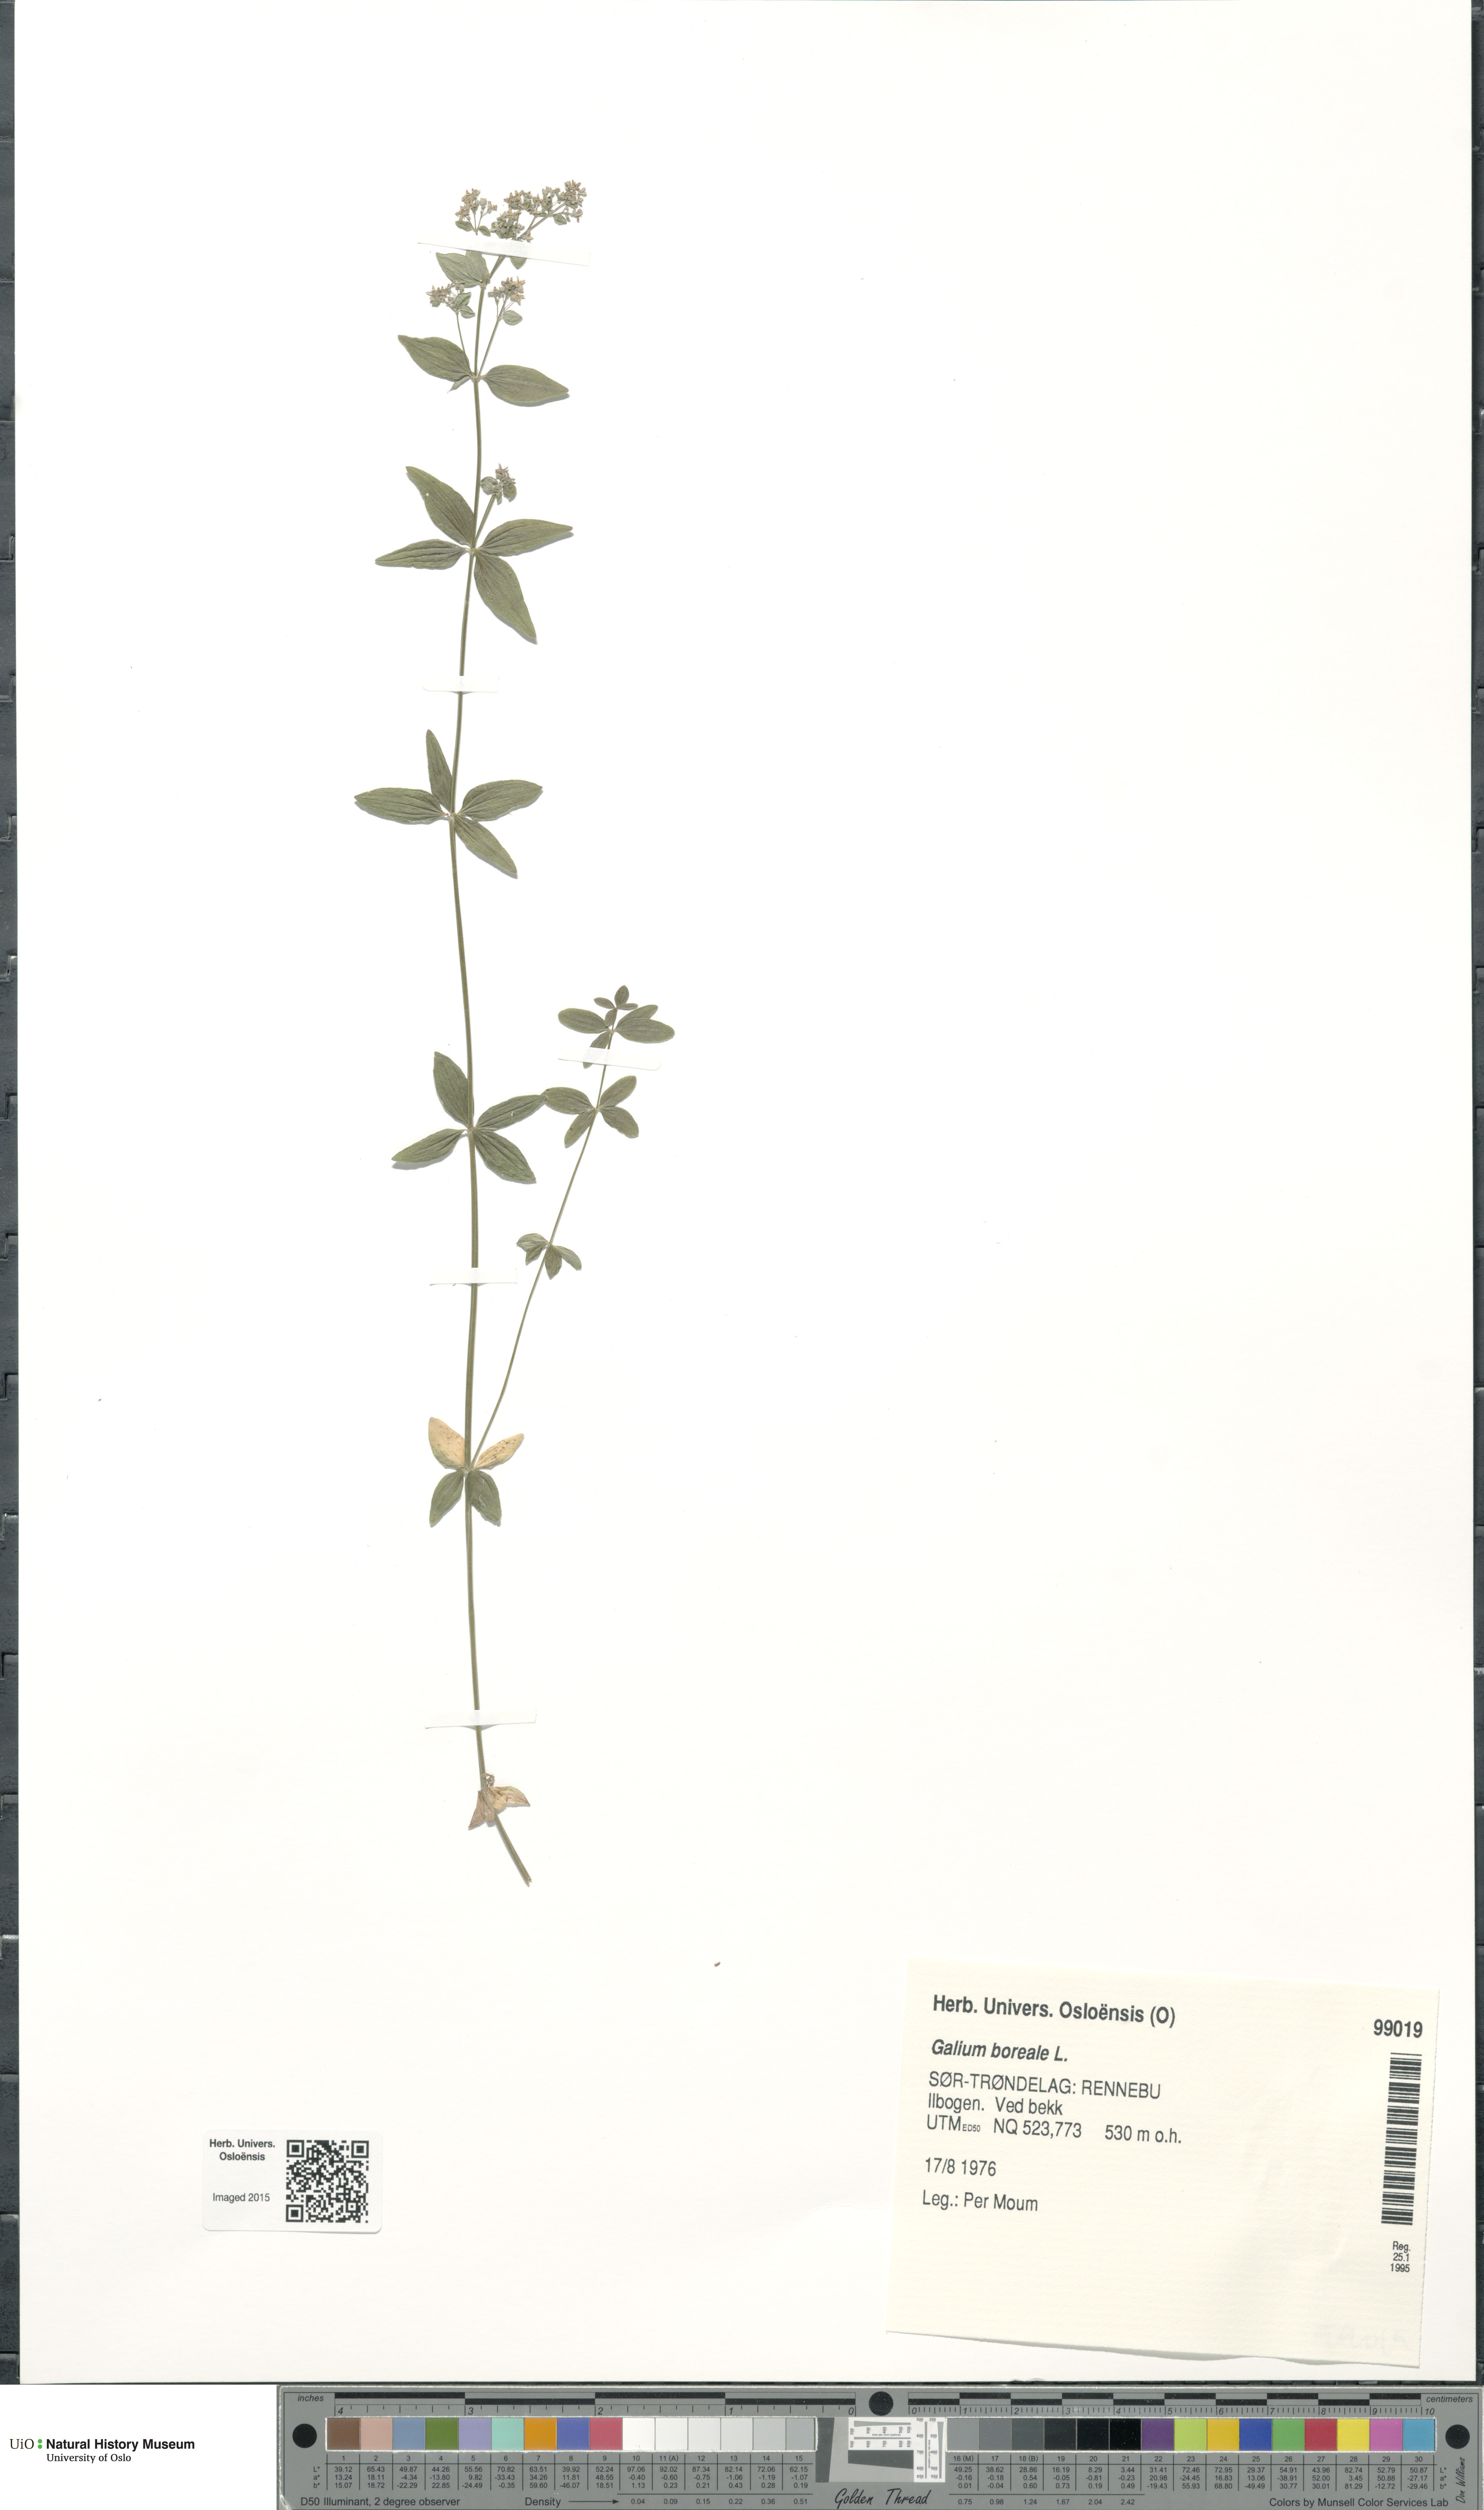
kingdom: Plantae
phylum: Tracheophyta
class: Magnoliopsida
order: Gentianales
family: Rubiaceae
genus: Galium
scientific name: Galium boreale
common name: Northern bedstraw
